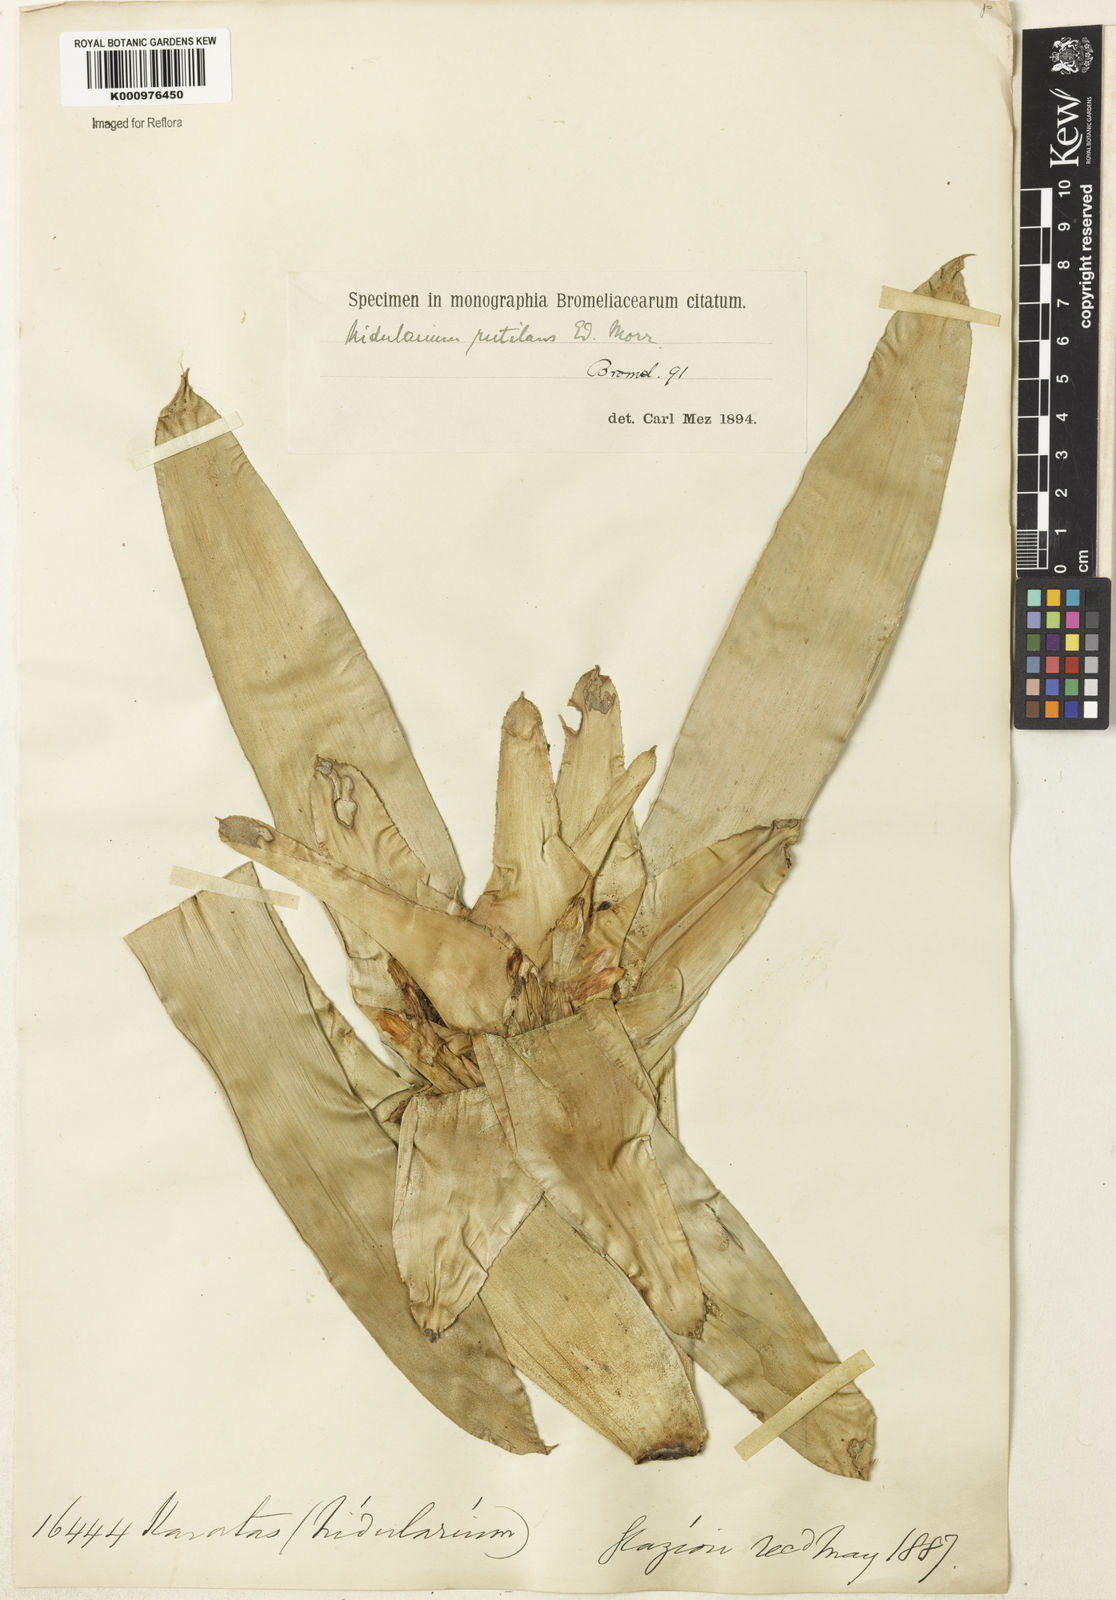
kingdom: Plantae
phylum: Tracheophyta
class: Liliopsida
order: Poales
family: Bromeliaceae
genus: Nidularium
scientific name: Nidularium rutilans
